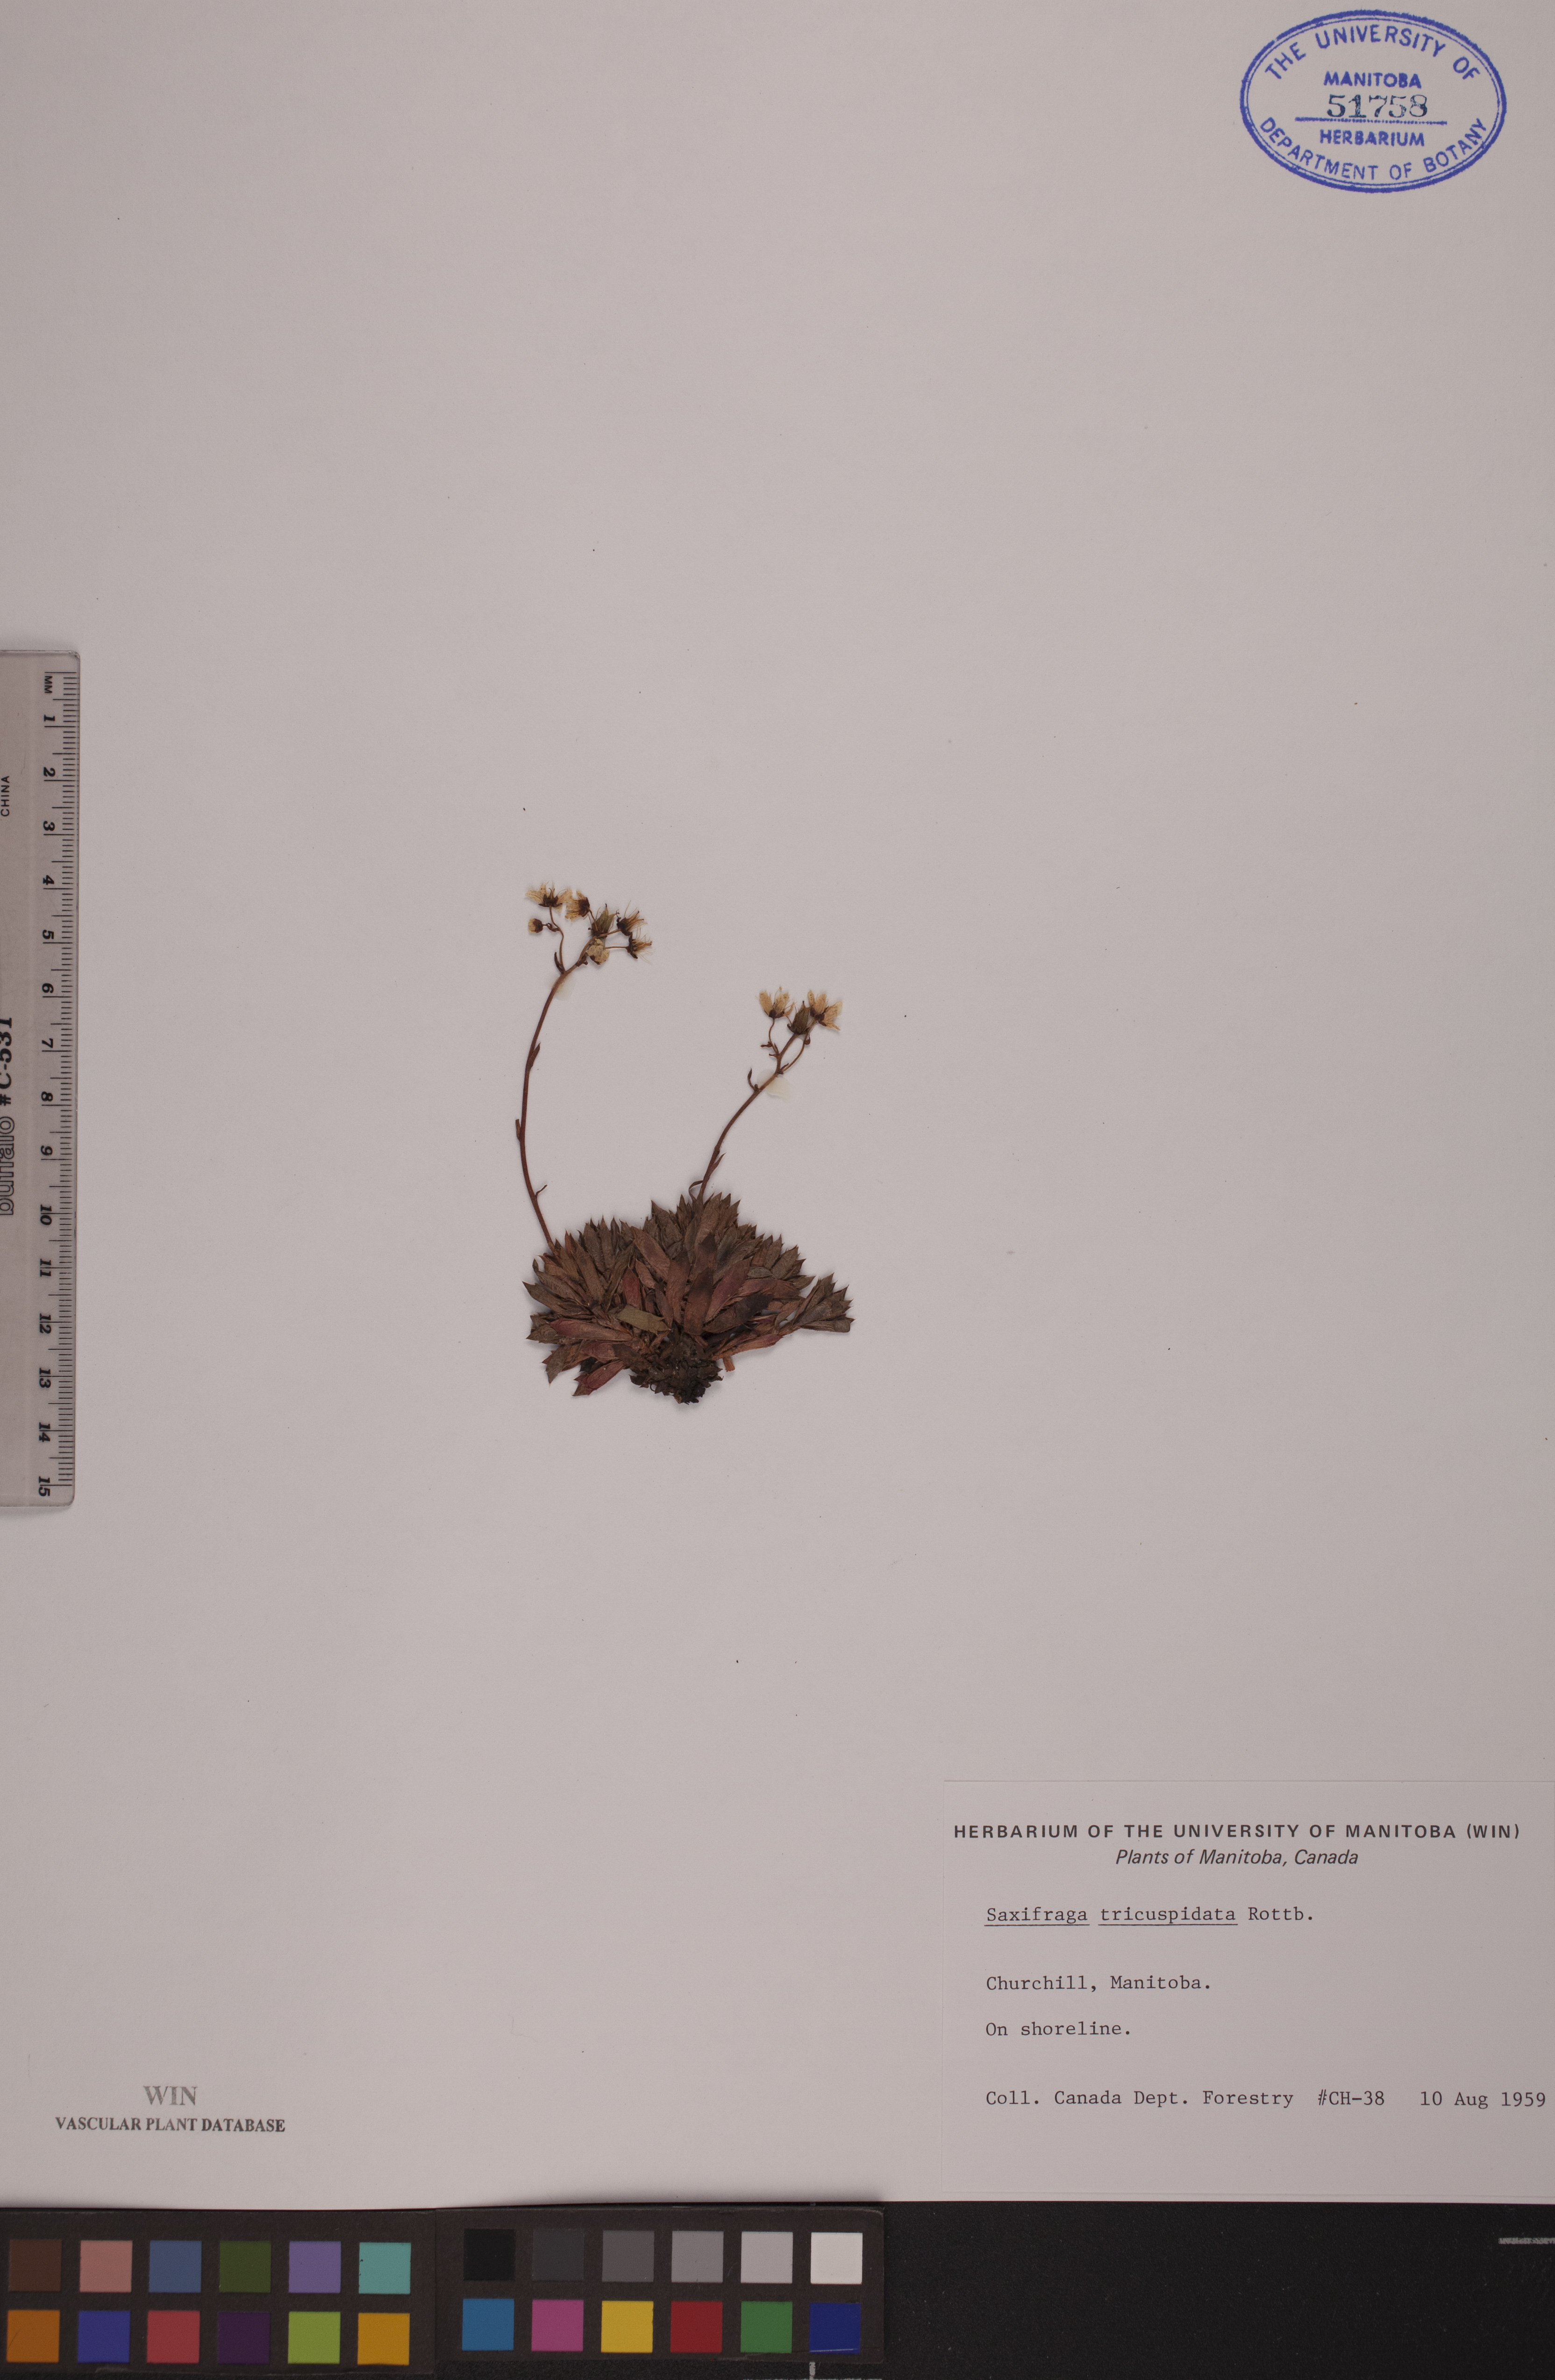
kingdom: Plantae
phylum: Tracheophyta
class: Magnoliopsida
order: Saxifragales
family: Saxifragaceae
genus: Saxifraga
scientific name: Saxifraga tricuspidata
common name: Prickly saxifrage
